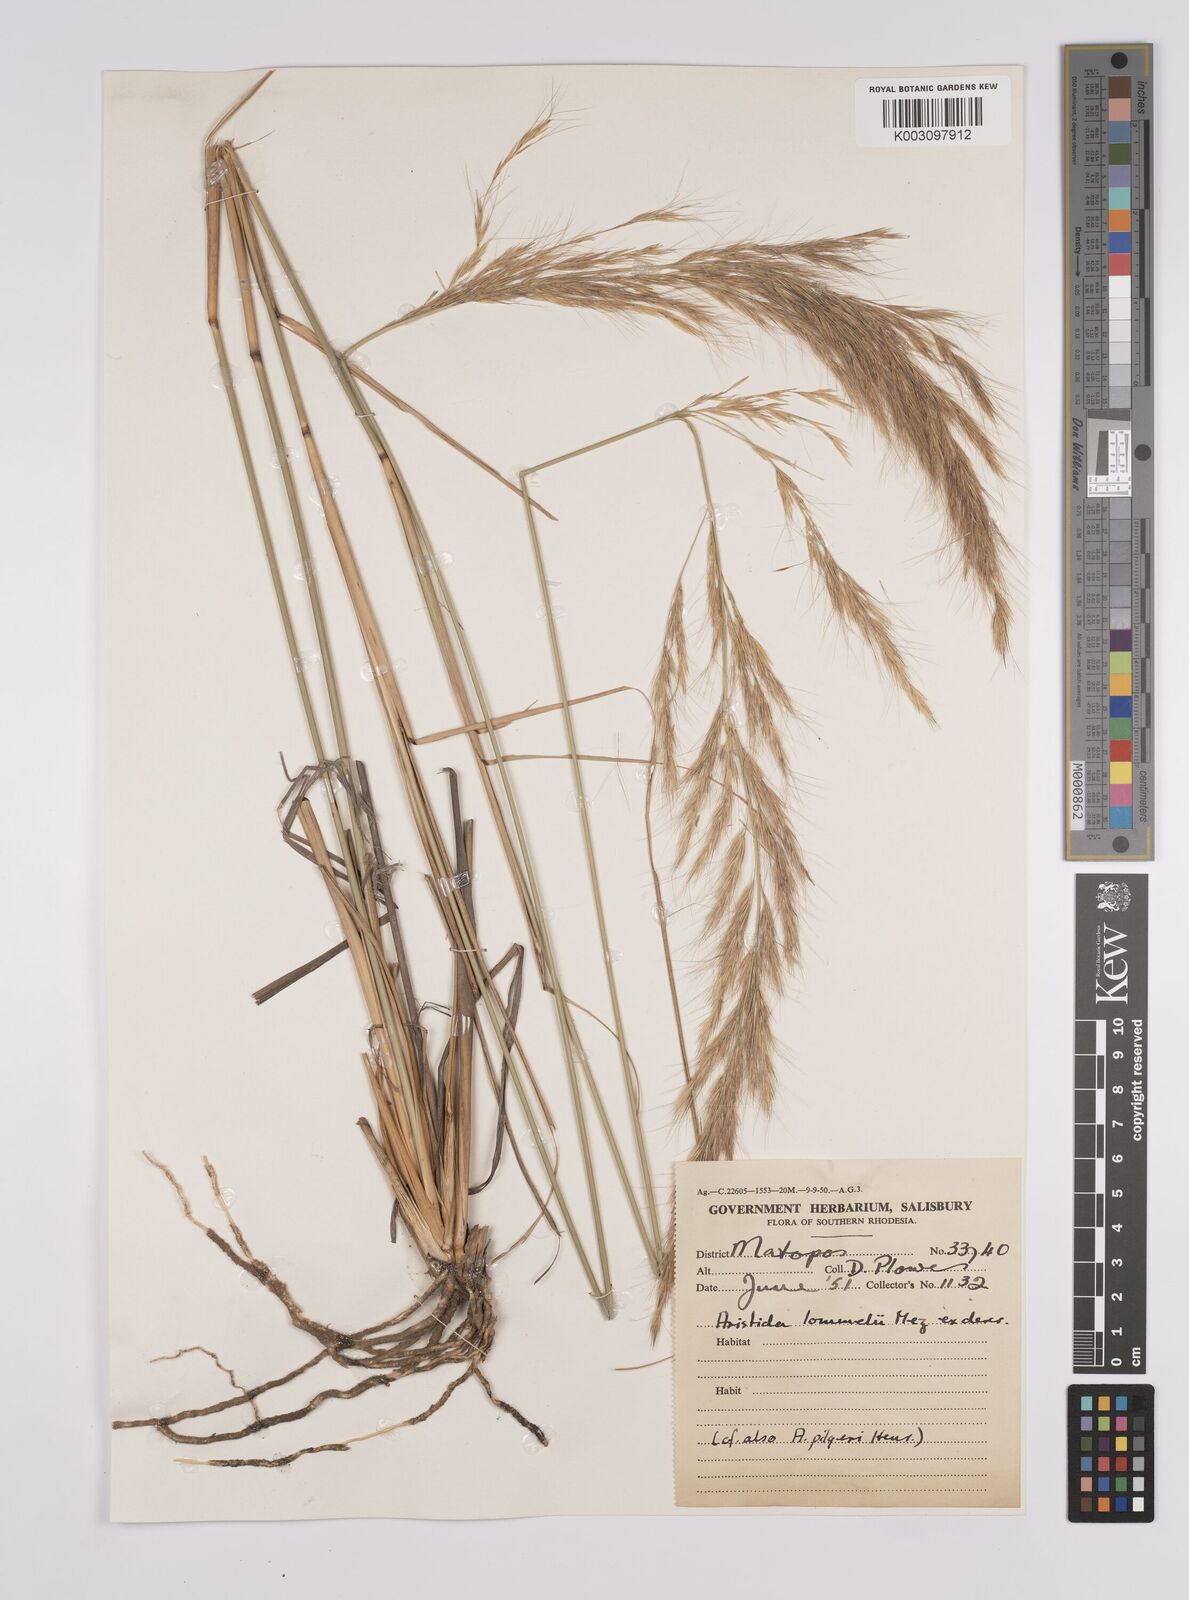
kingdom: Plantae
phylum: Tracheophyta
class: Liliopsida
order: Poales
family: Poaceae
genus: Aristida
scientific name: Aristida pilgeri
